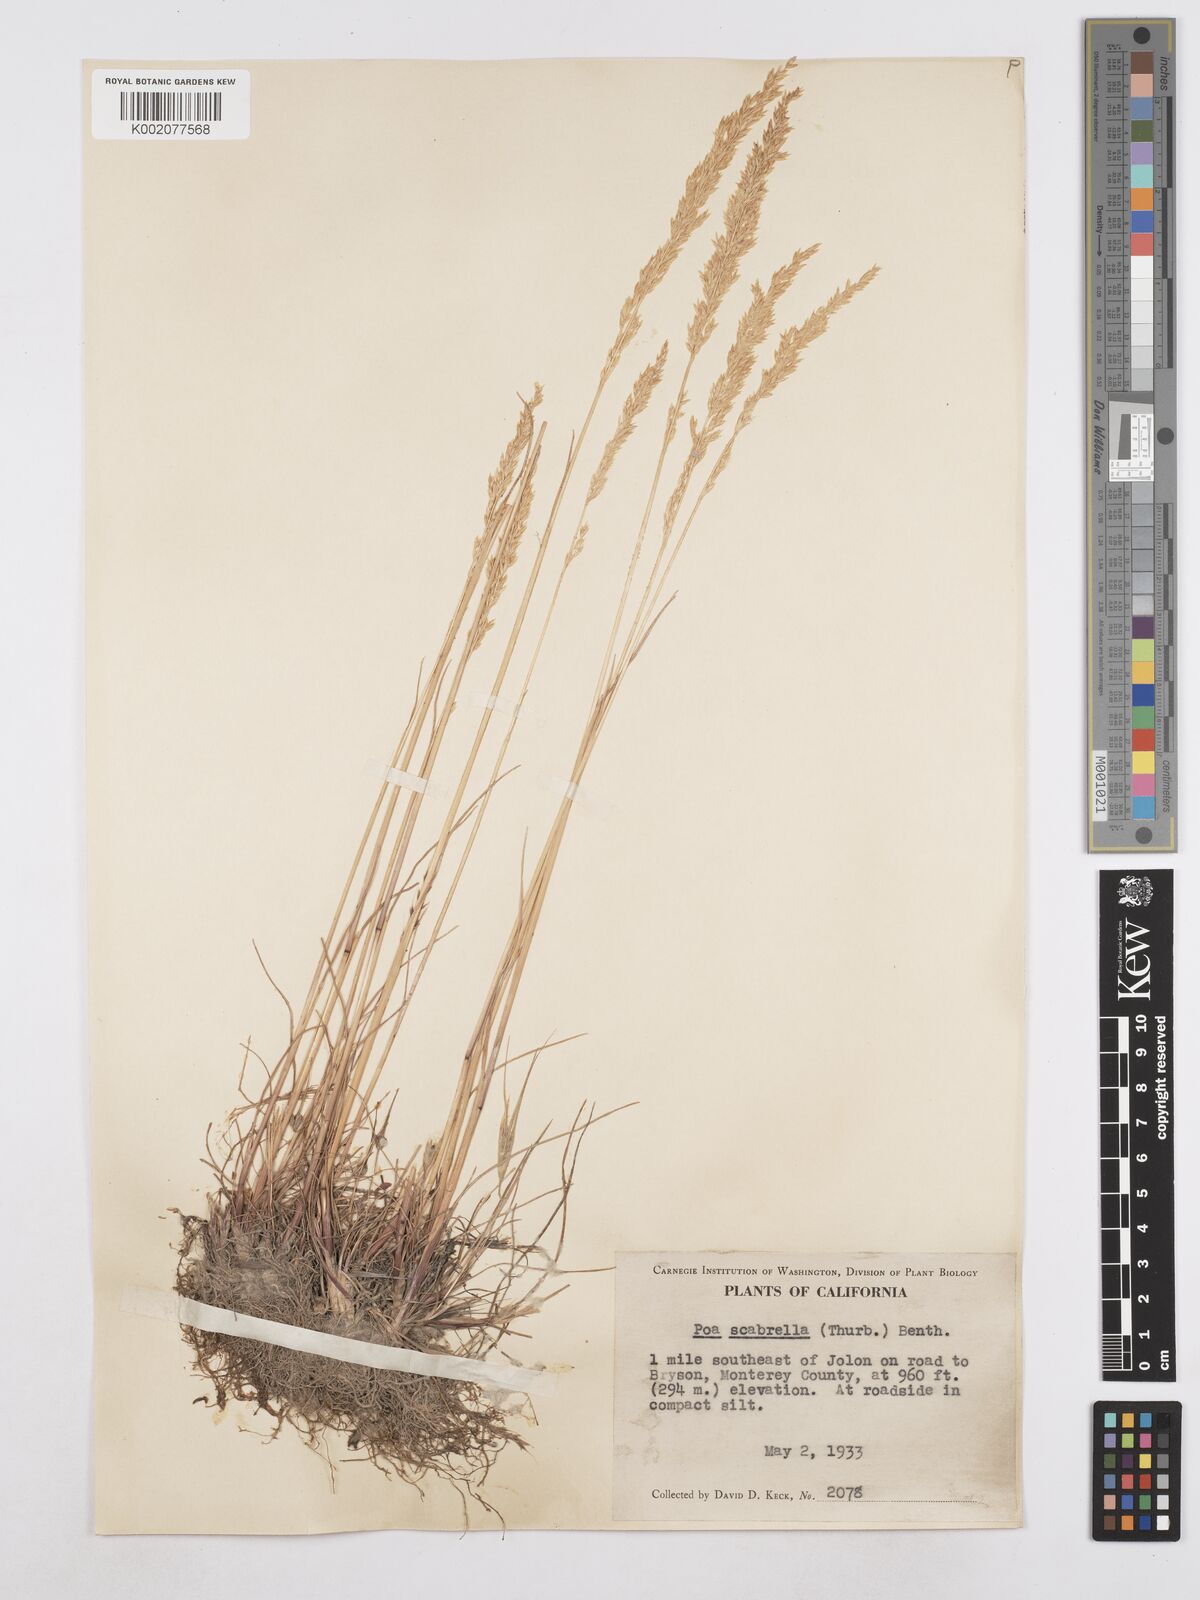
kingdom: Plantae
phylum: Tracheophyta
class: Liliopsida
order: Poales
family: Poaceae
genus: Poa
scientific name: Poa secunda
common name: Sandberg bluegrass
